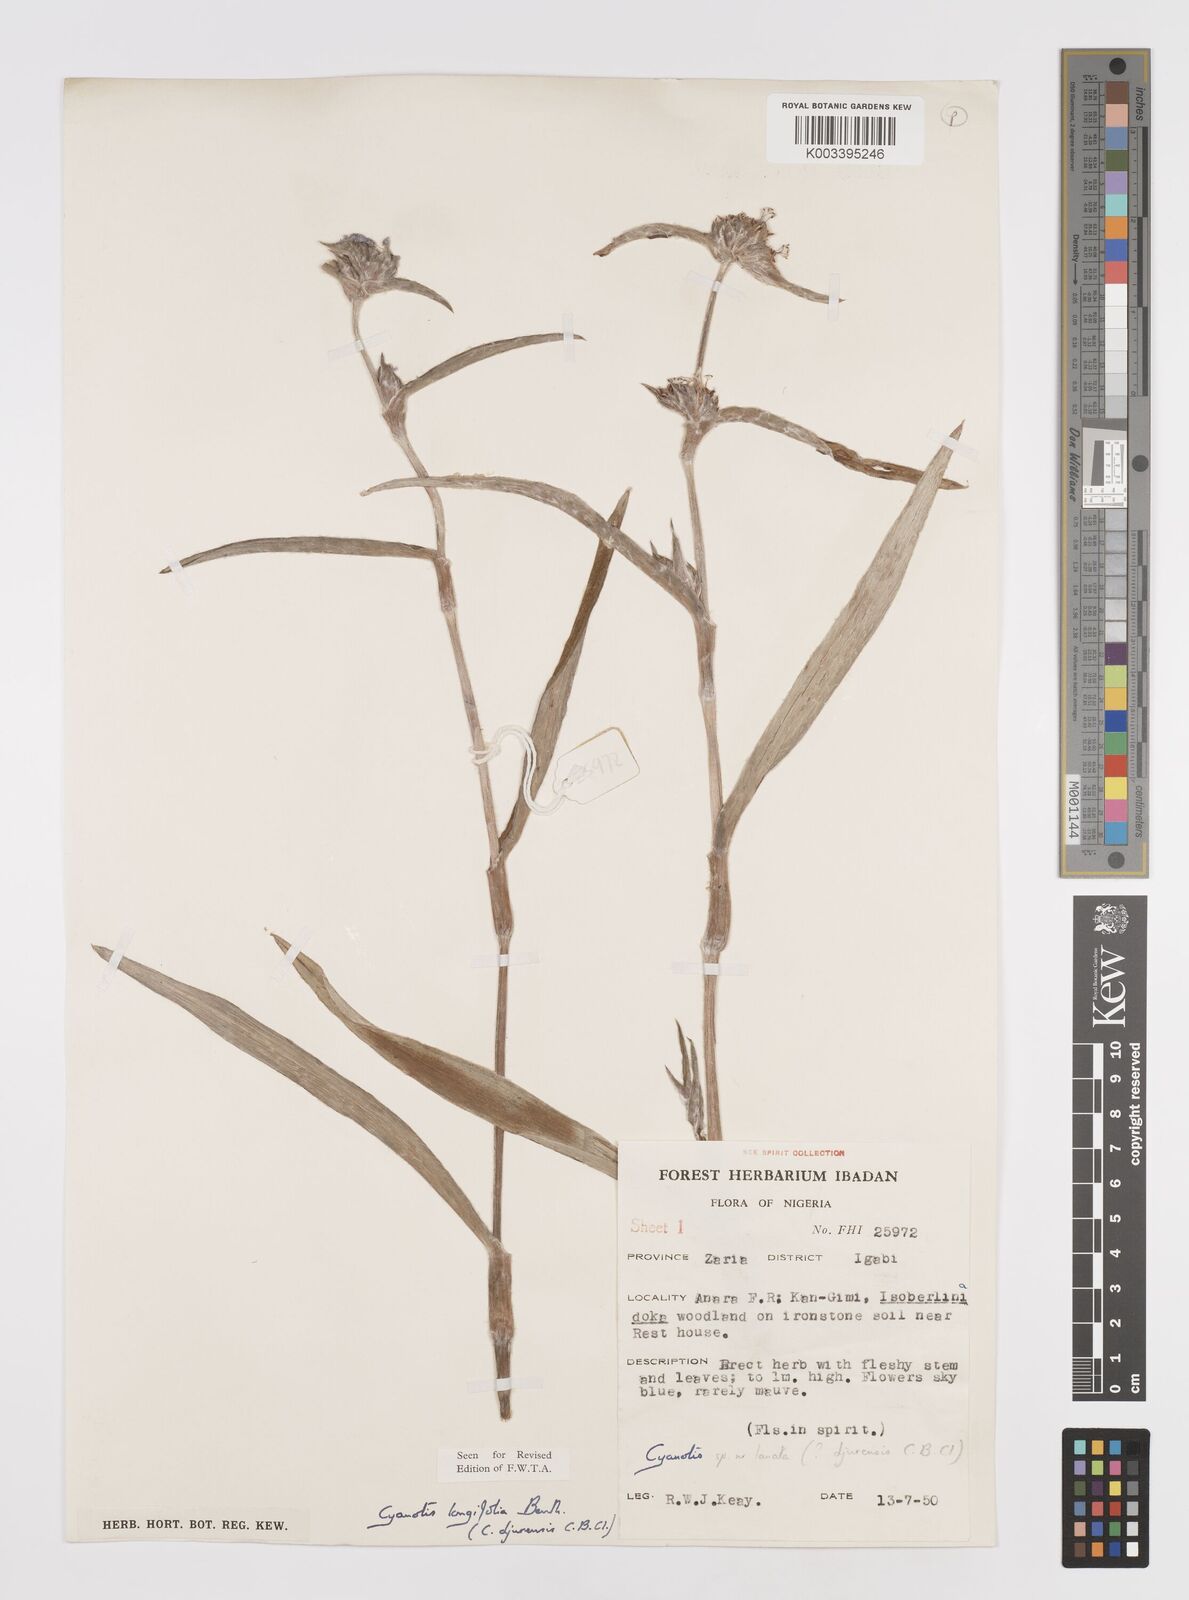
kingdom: Plantae
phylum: Tracheophyta
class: Liliopsida
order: Commelinales
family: Commelinaceae
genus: Cyanotis
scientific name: Cyanotis
